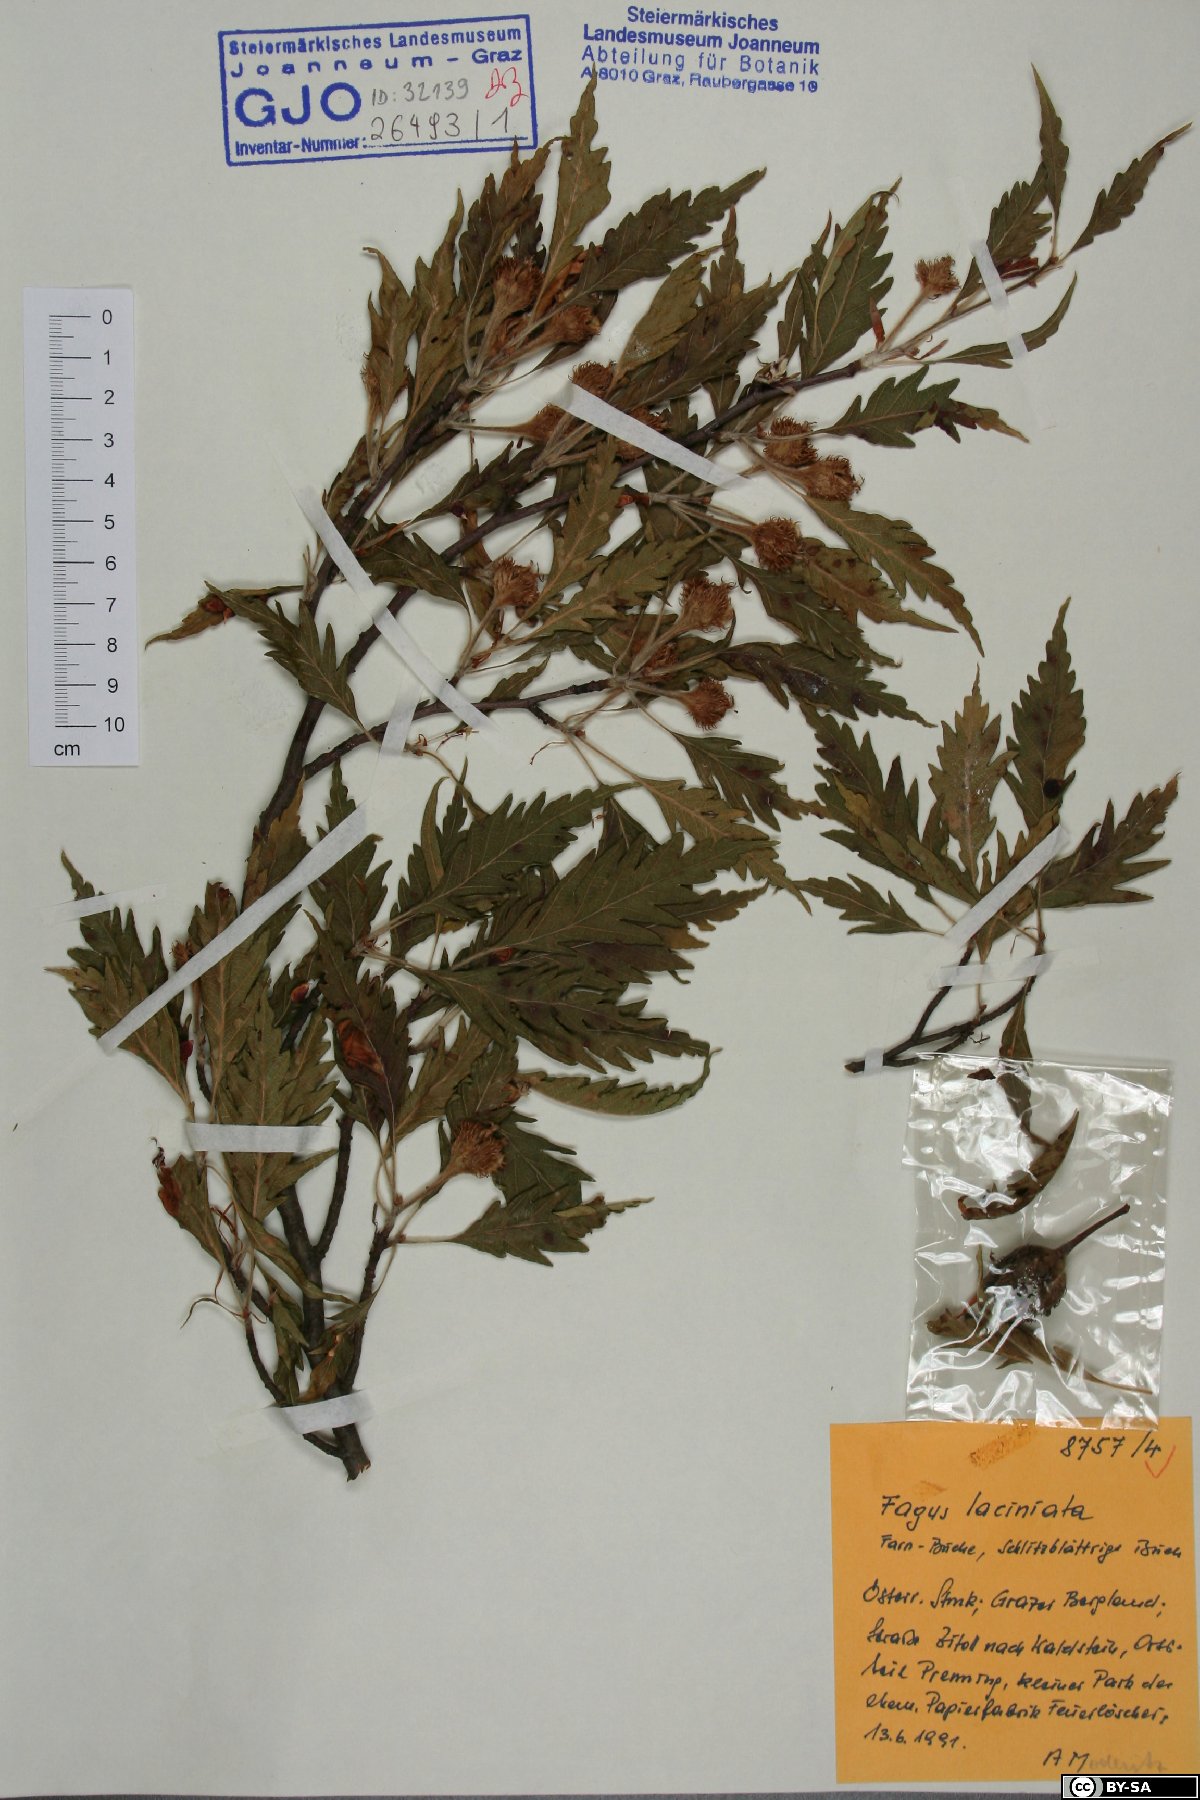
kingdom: Plantae
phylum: Tracheophyta
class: Magnoliopsida
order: Fagales
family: Fagaceae
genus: Fagus
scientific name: Fagus sylvatica
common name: Beech
